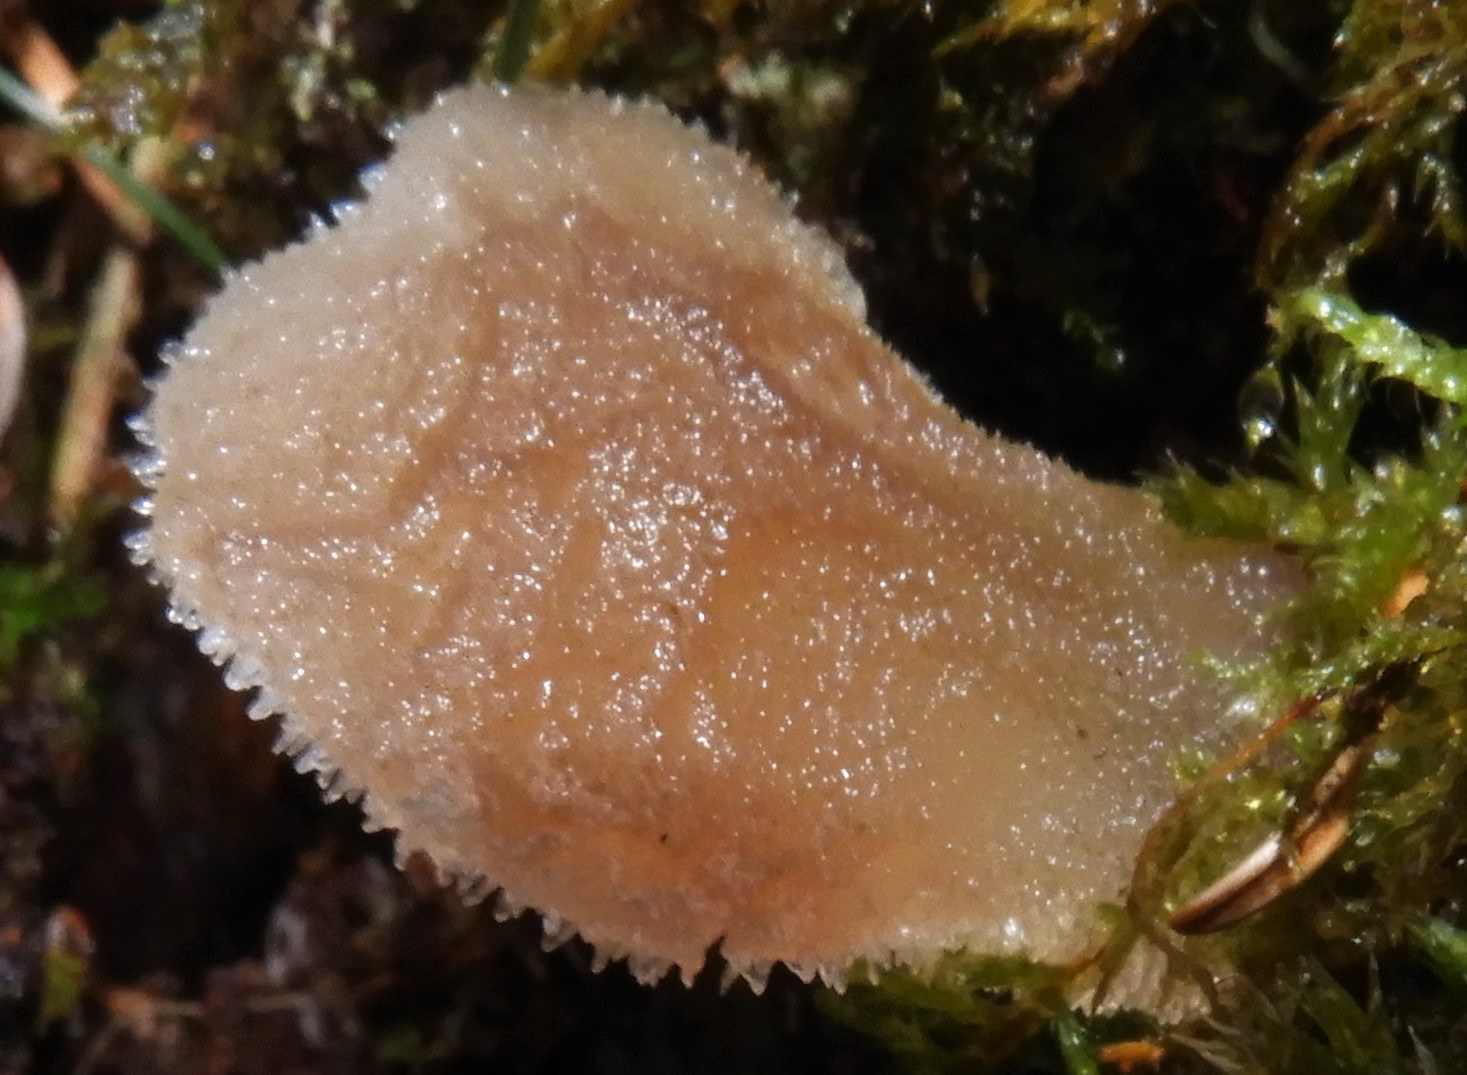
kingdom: Fungi
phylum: Basidiomycota
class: Agaricomycetes
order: Auriculariales
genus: Pseudohydnum
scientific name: Pseudohydnum gelatinosum
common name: bævretand
